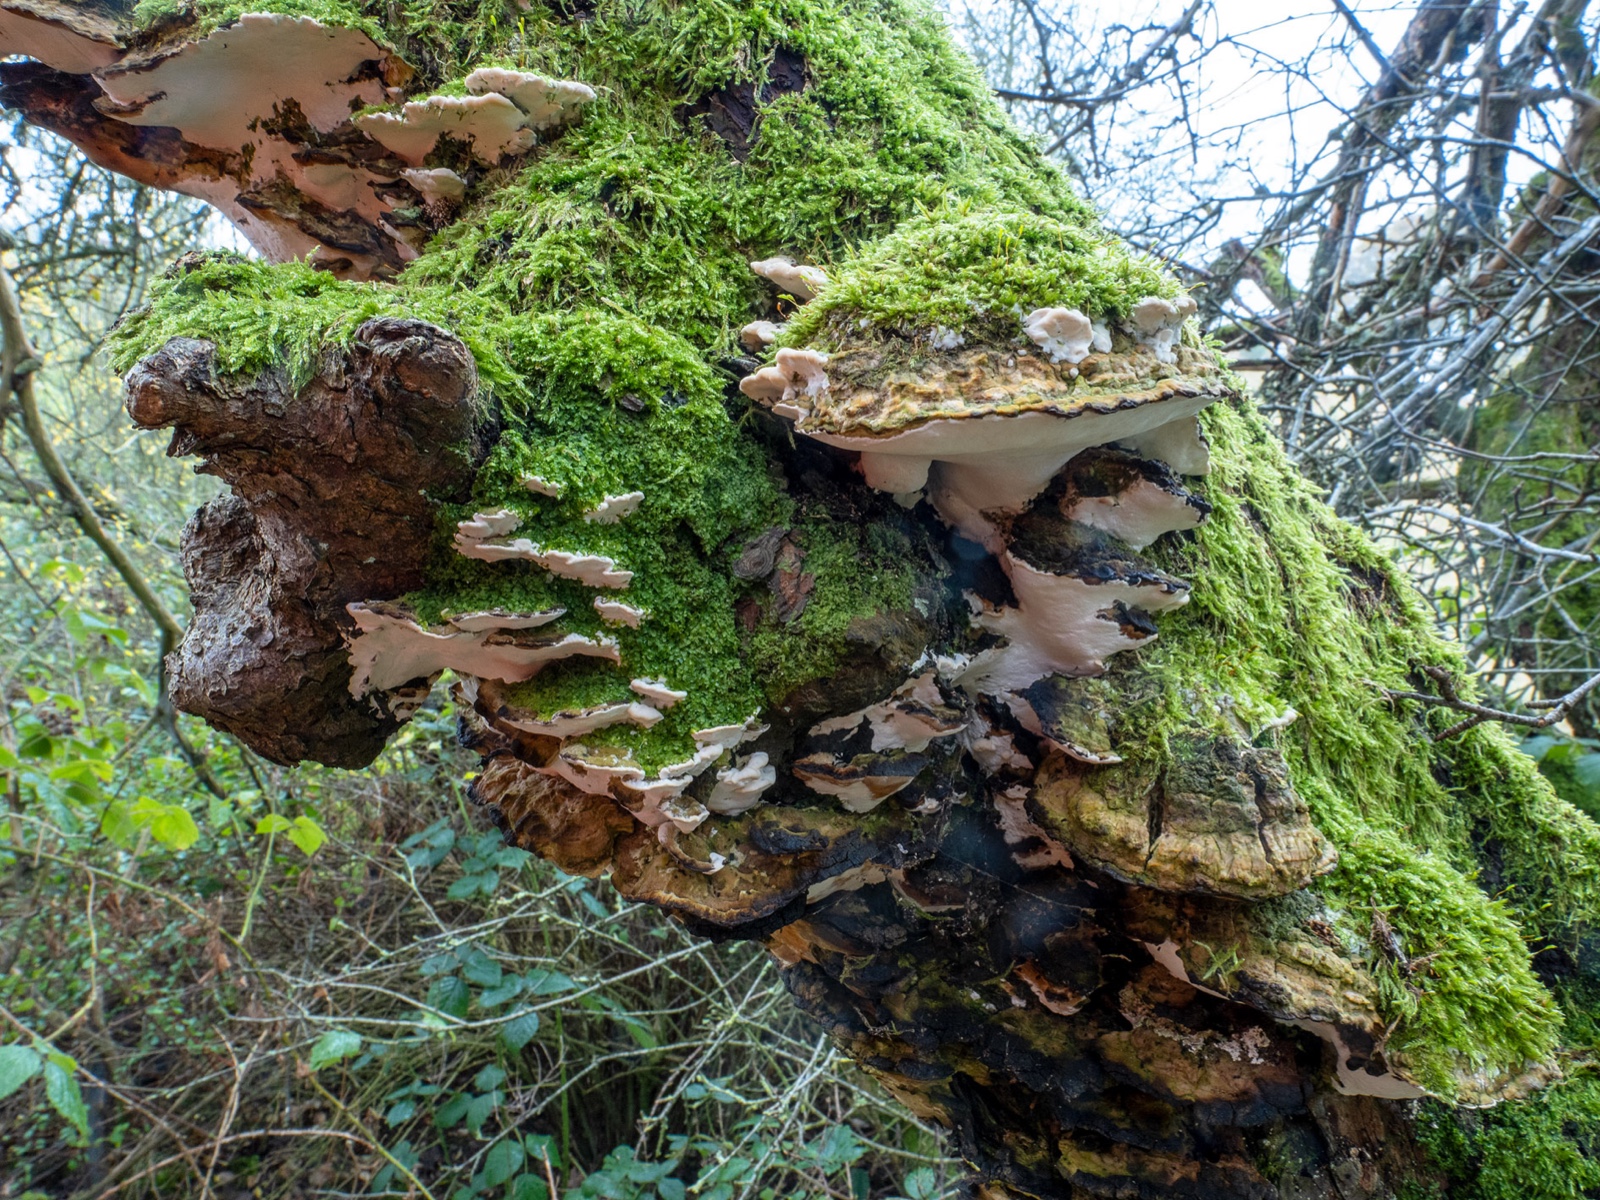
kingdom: Fungi
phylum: Basidiomycota
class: Agaricomycetes
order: Hymenochaetales
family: Oxyporaceae
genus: Oxyporus
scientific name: Oxyporus populinus
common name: sammenvokset trylleporesvamp
